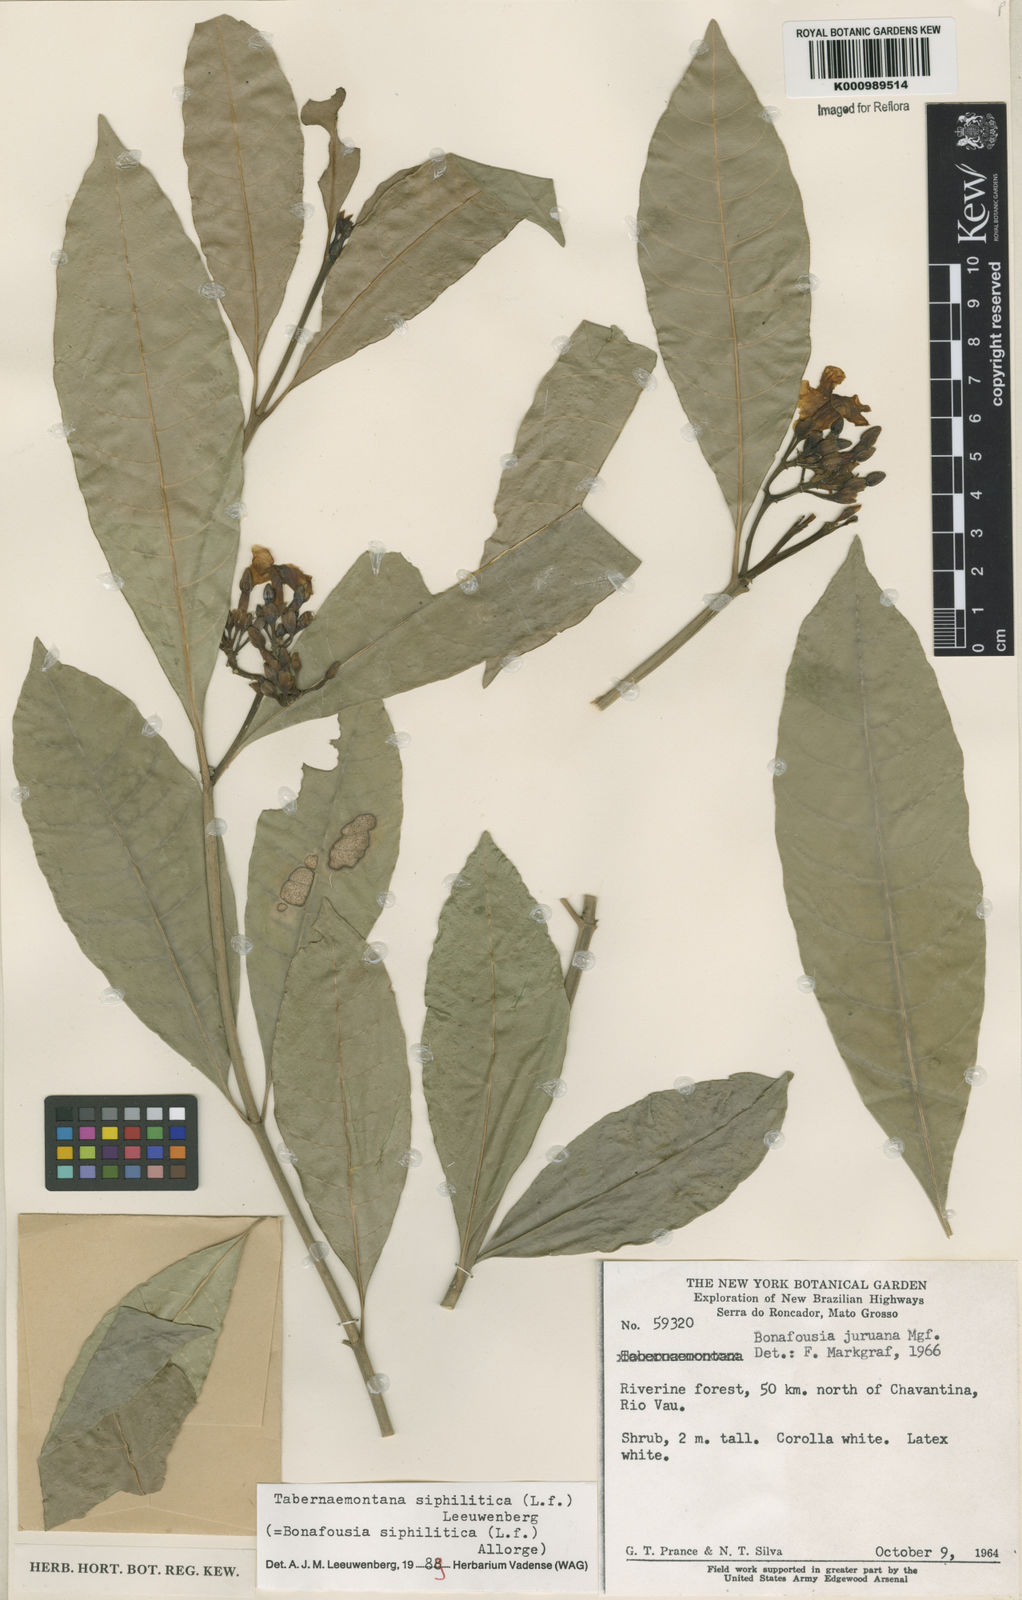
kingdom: Plantae
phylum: Tracheophyta
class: Magnoliopsida
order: Gentianales
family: Apocynaceae
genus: Tabernaemontana
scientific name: Tabernaemontana siphilitica
